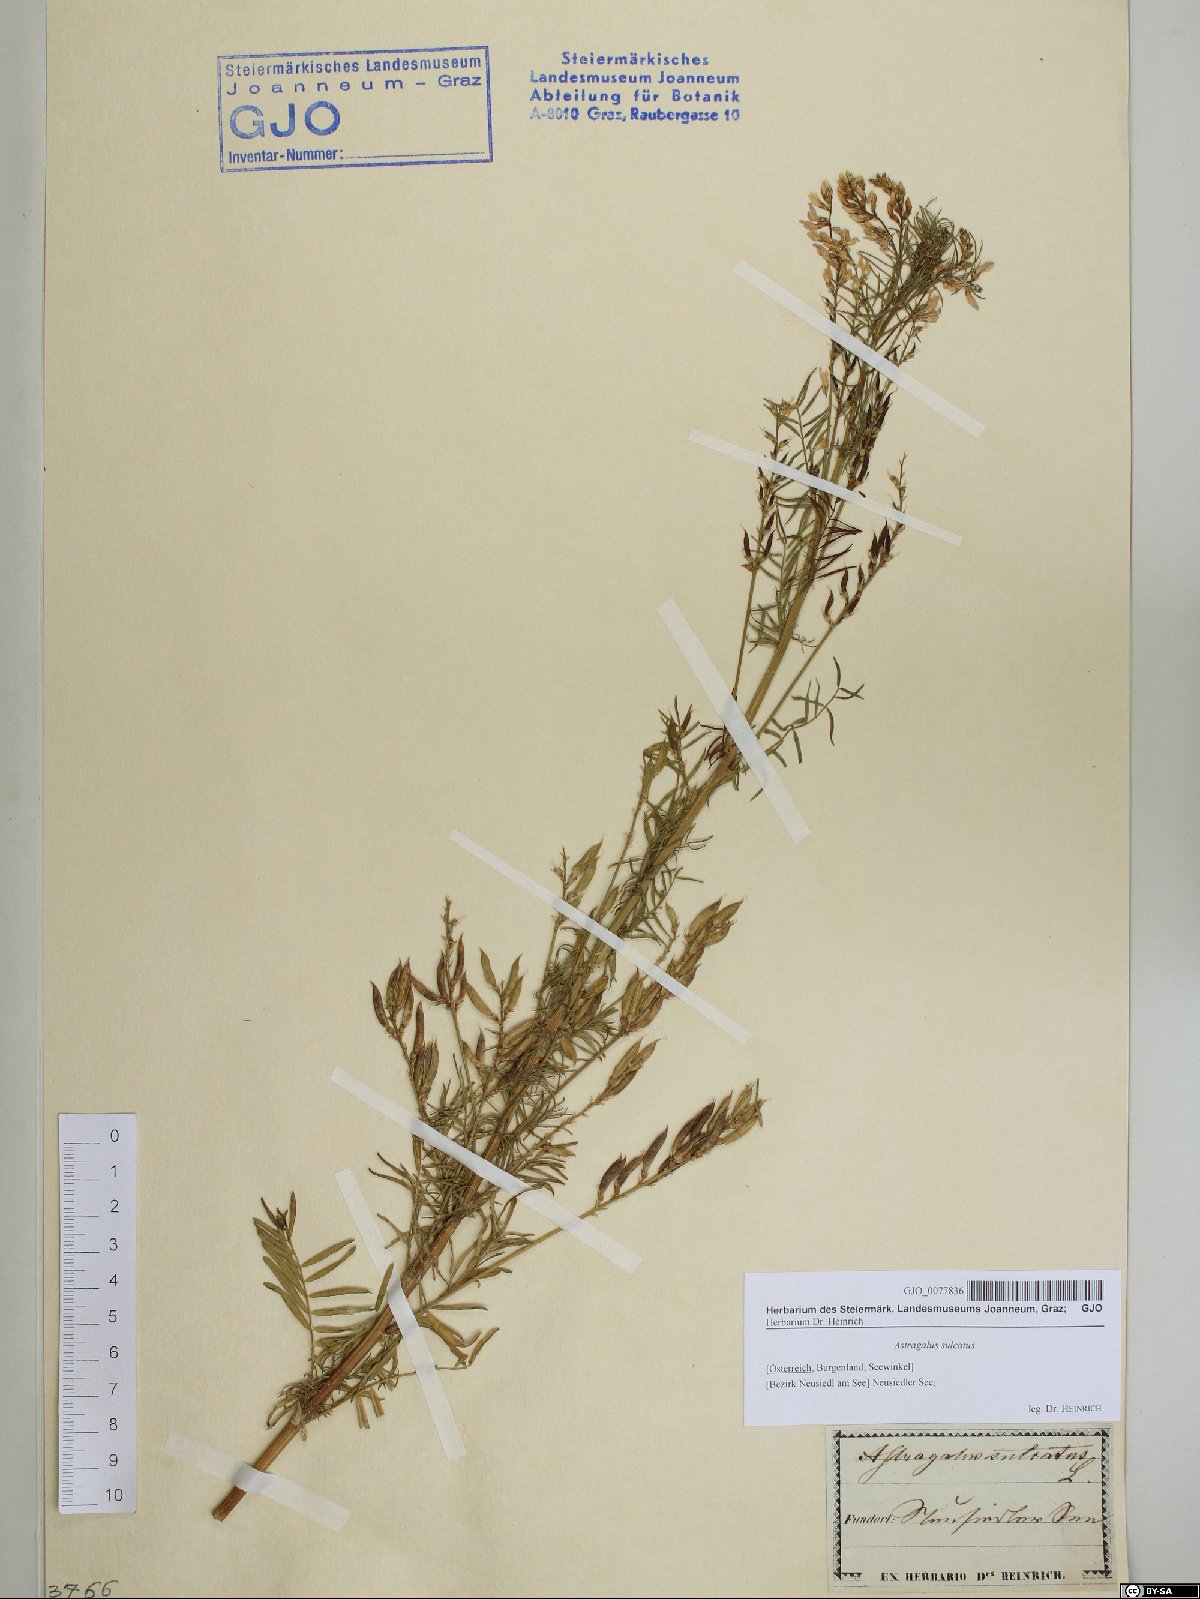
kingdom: Plantae
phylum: Tracheophyta
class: Magnoliopsida
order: Fabales
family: Fabaceae
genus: Astragalus
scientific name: Astragalus sulcatus
